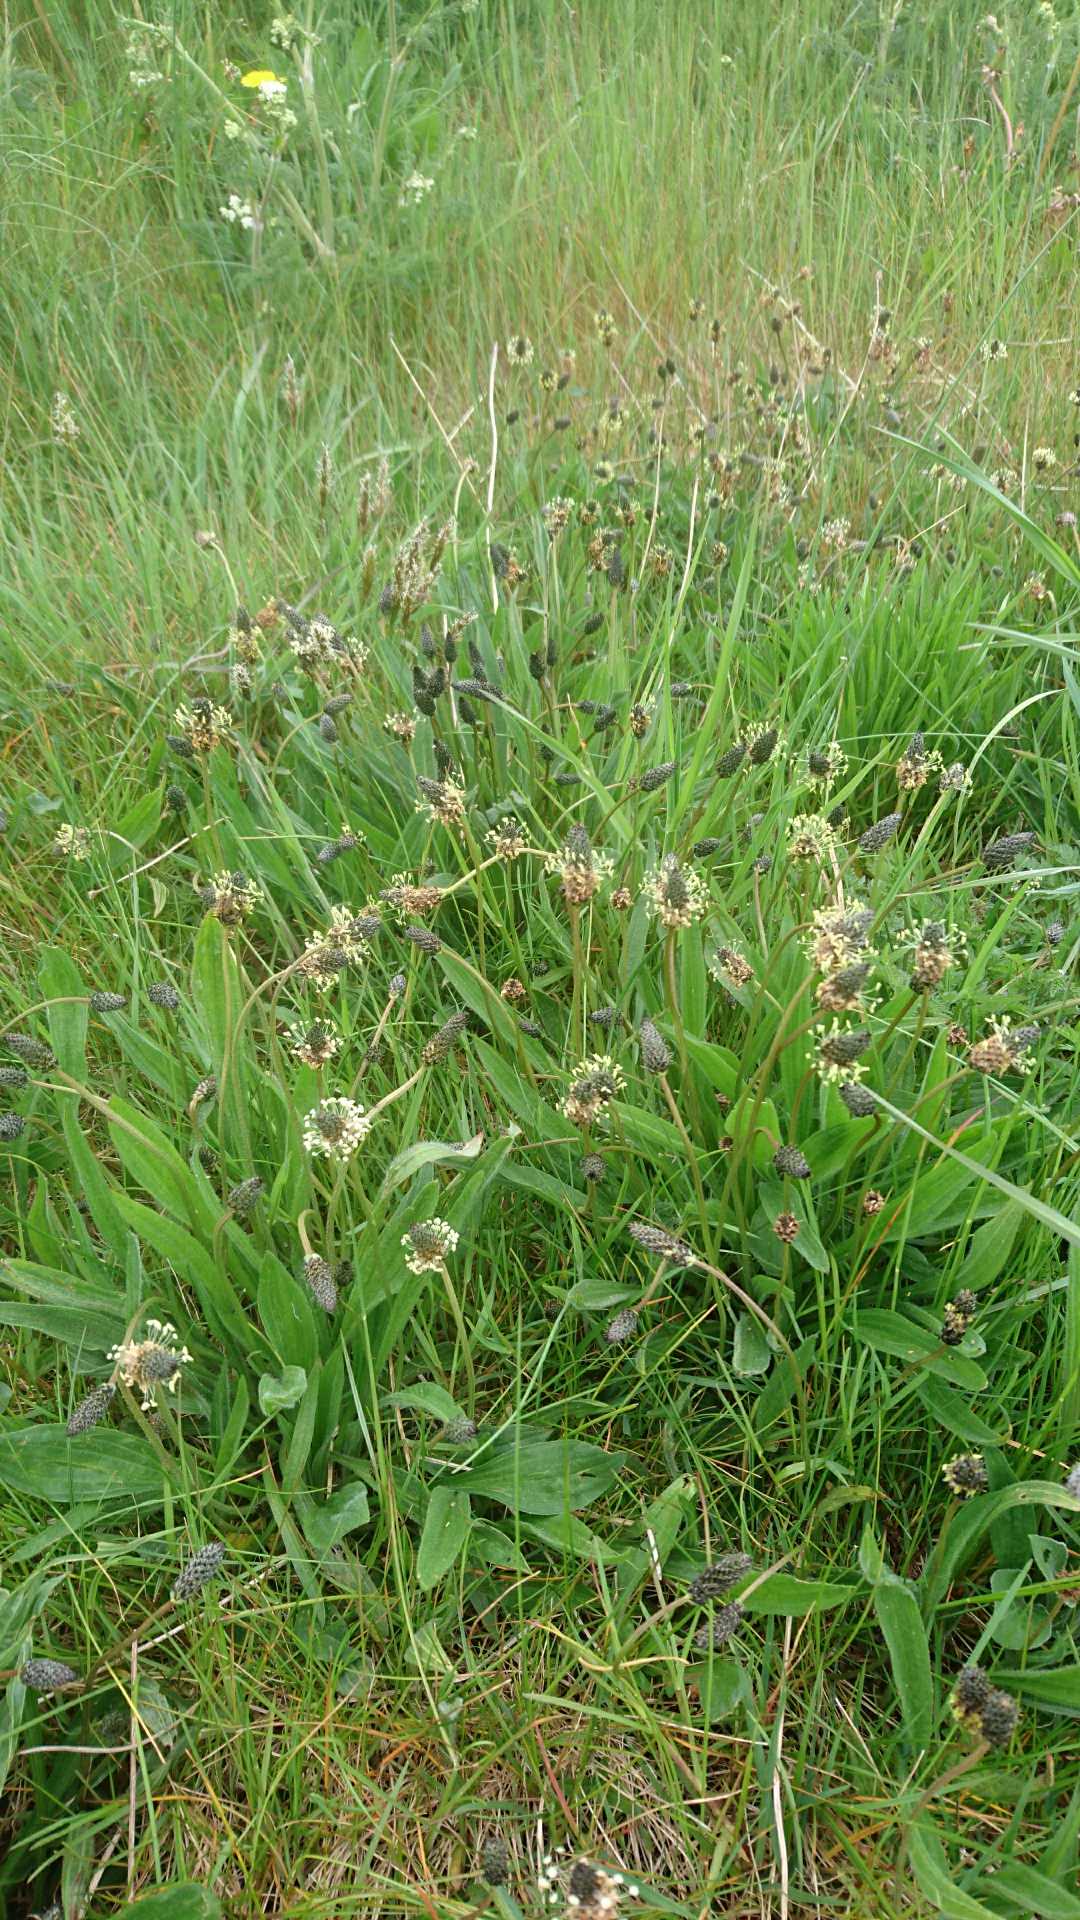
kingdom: Plantae
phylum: Tracheophyta
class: Magnoliopsida
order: Lamiales
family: Plantaginaceae
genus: Plantago
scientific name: Plantago lanceolata
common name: Lancet-vejbred
